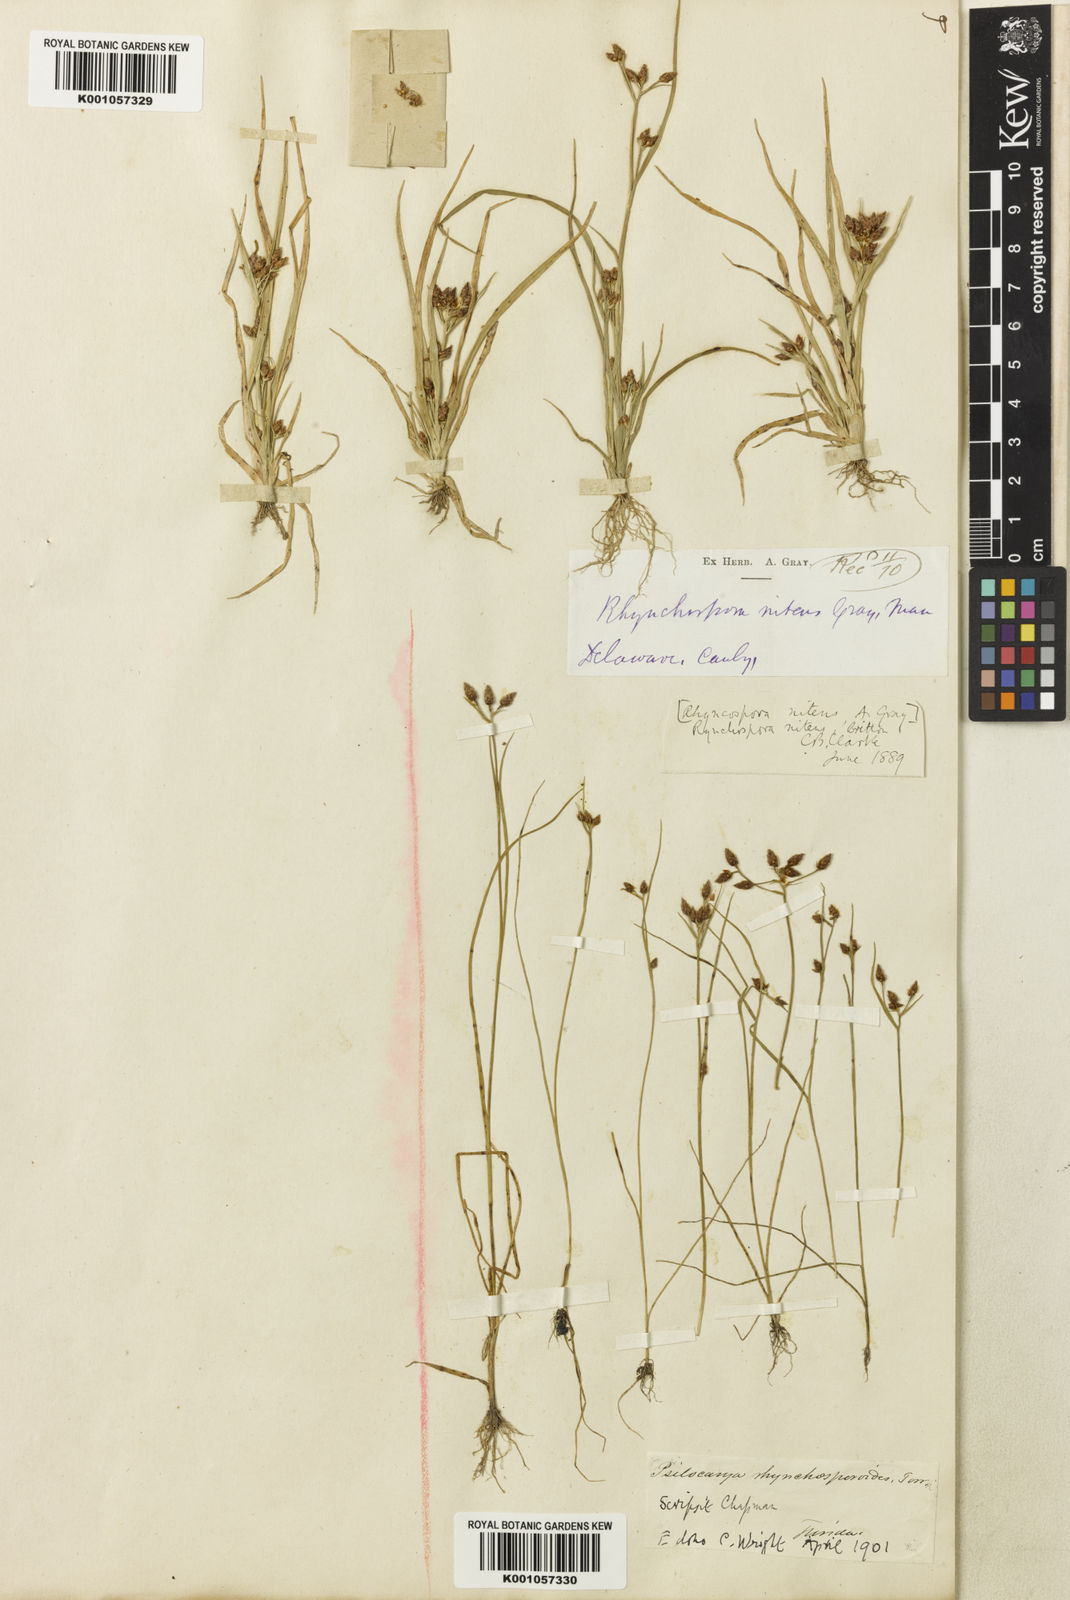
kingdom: Plantae
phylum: Tracheophyta
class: Liliopsida
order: Poales
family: Cyperaceae
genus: Rhynchospora
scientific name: Rhynchospora nitens
